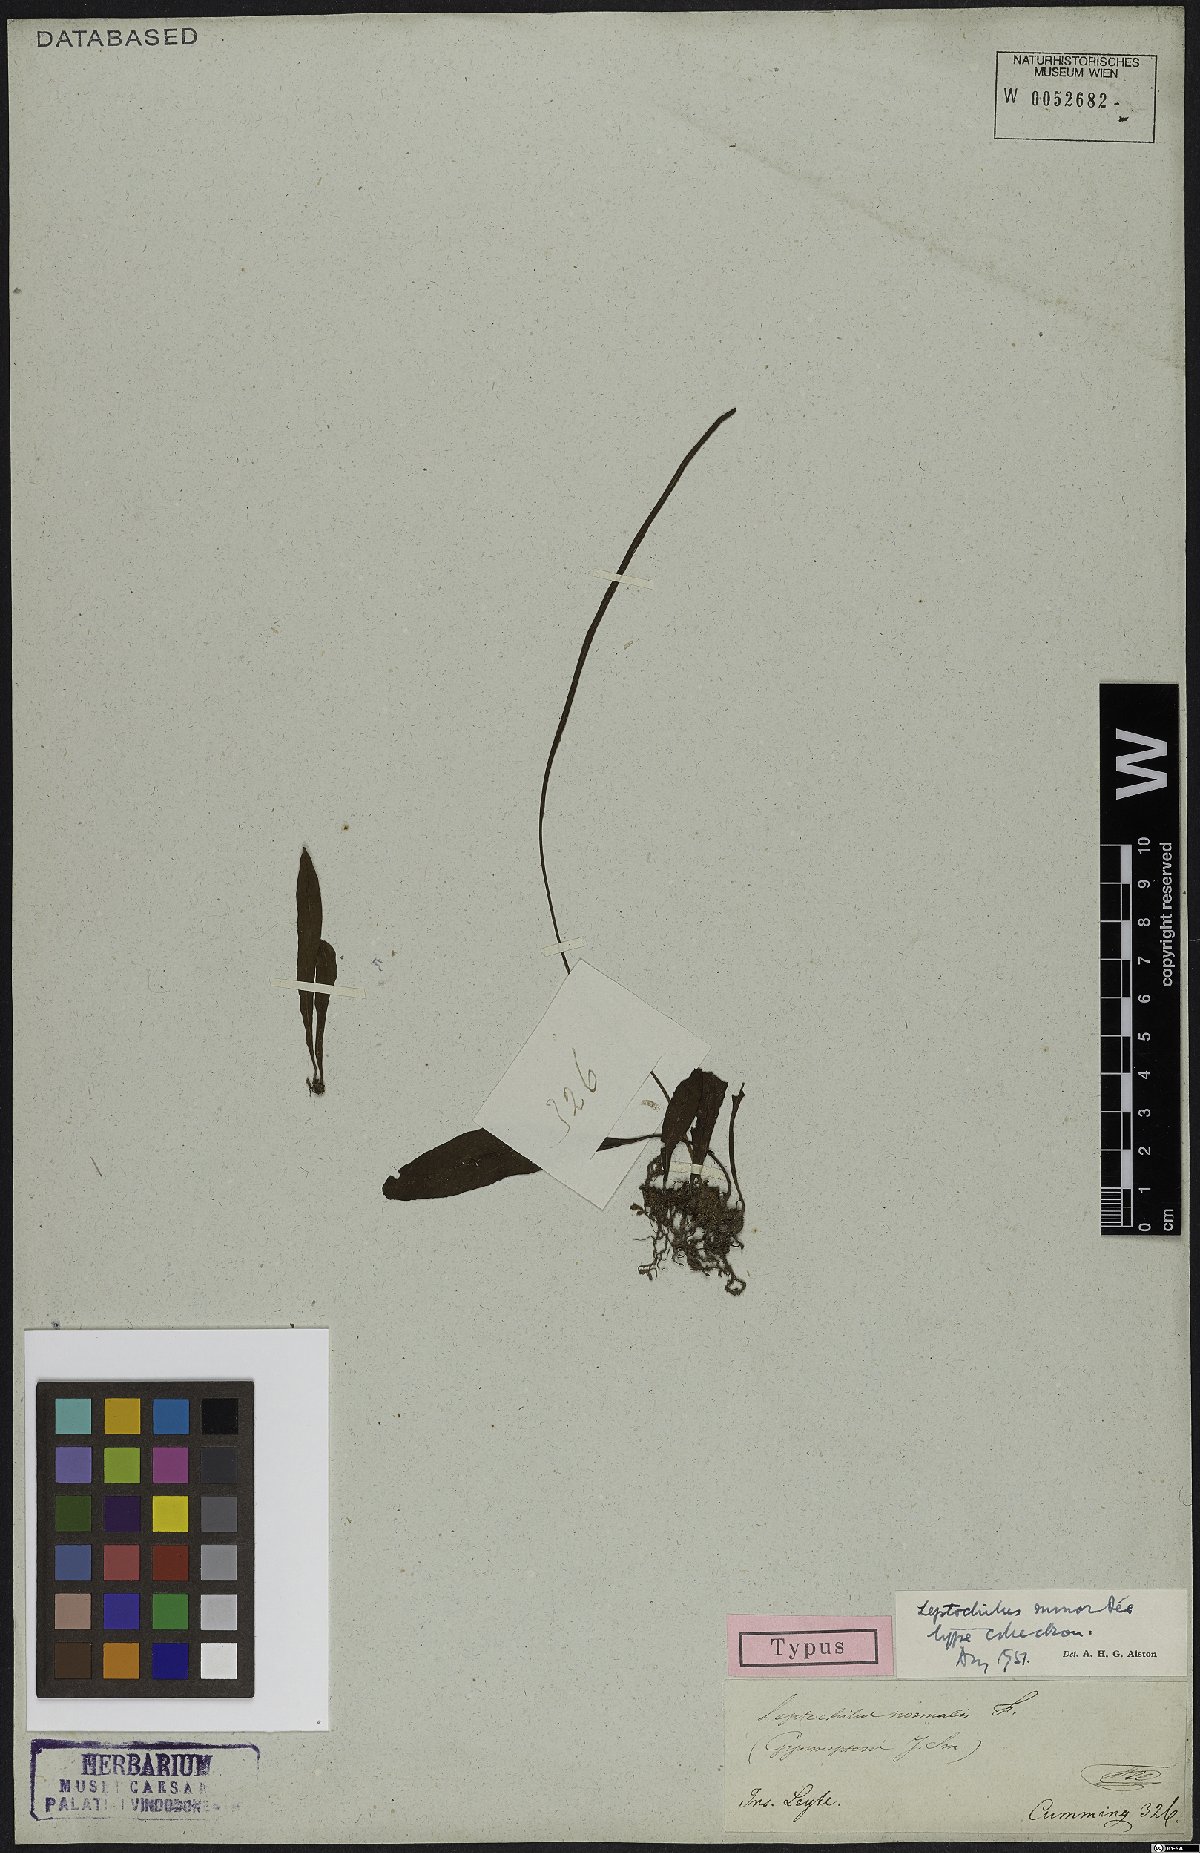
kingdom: Plantae
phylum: Tracheophyta
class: Polypodiopsida
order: Polypodiales
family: Polypodiaceae
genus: Leptochilus
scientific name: Leptochilus minor
